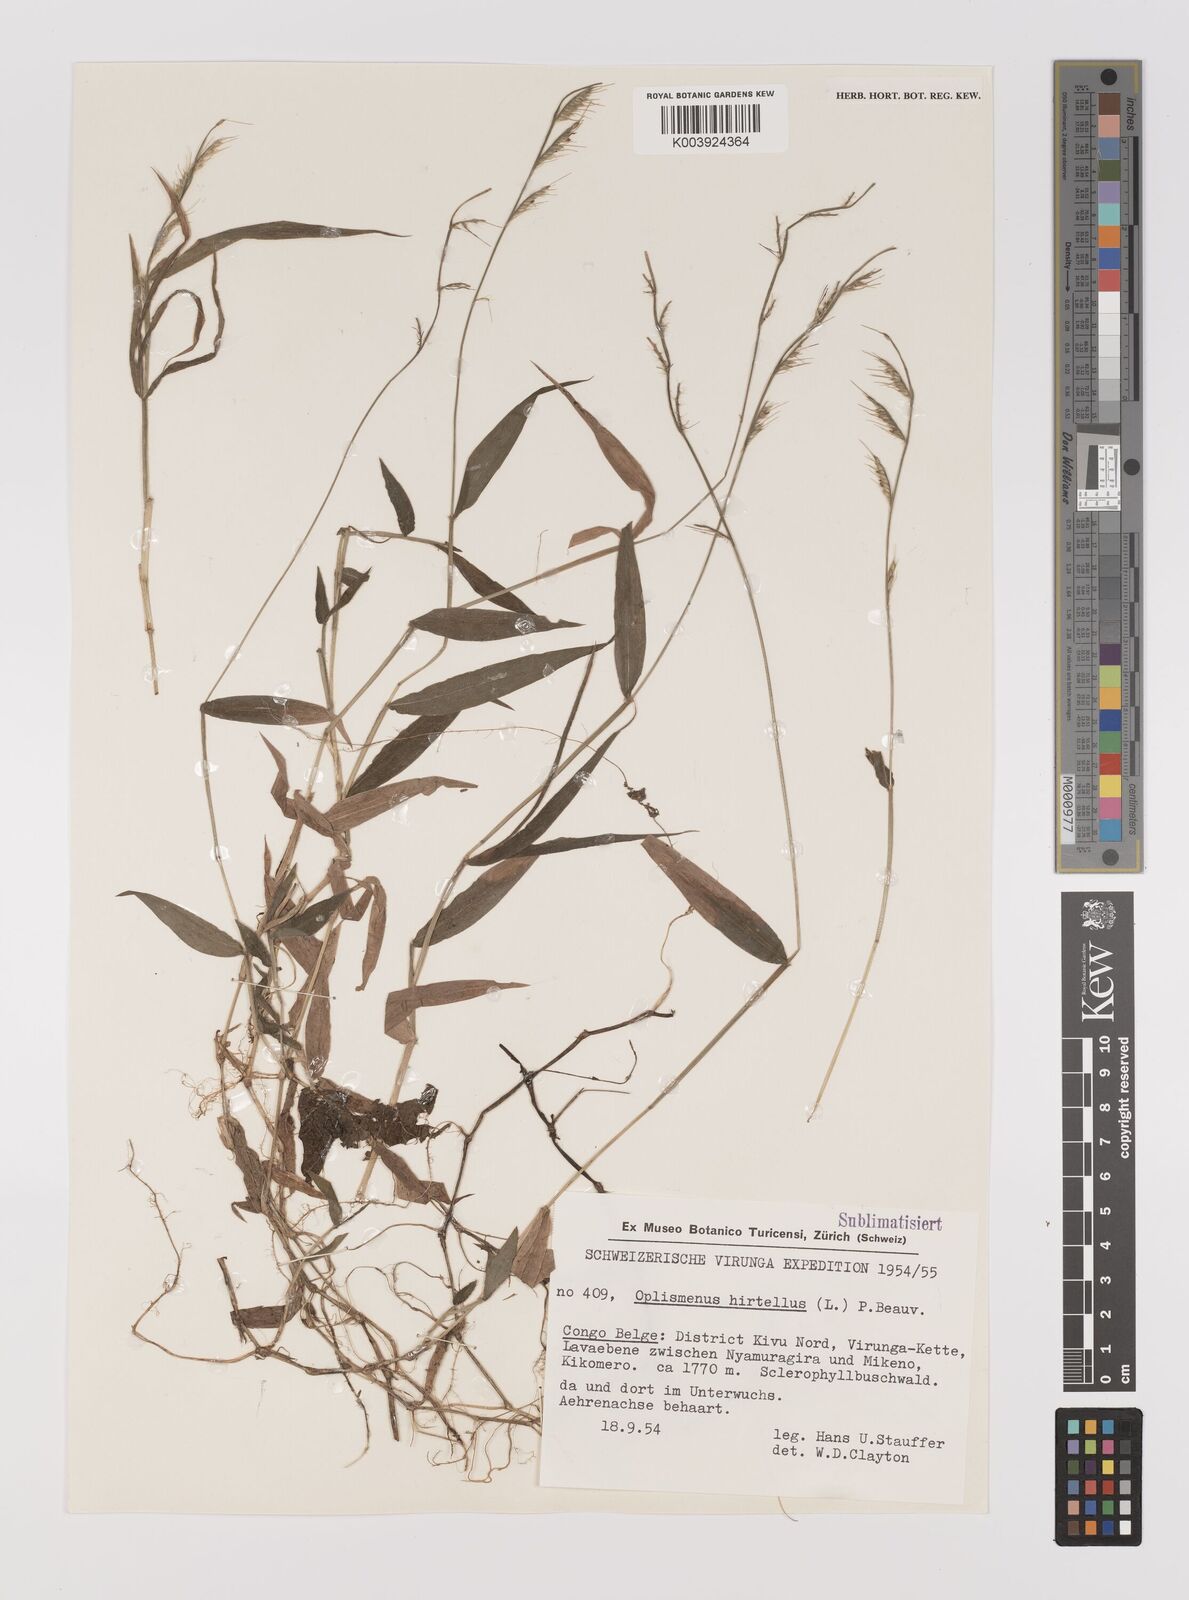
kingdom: Plantae
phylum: Tracheophyta
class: Liliopsida
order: Poales
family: Poaceae
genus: Oplismenus
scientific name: Oplismenus hirtellus
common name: Basketgrass
